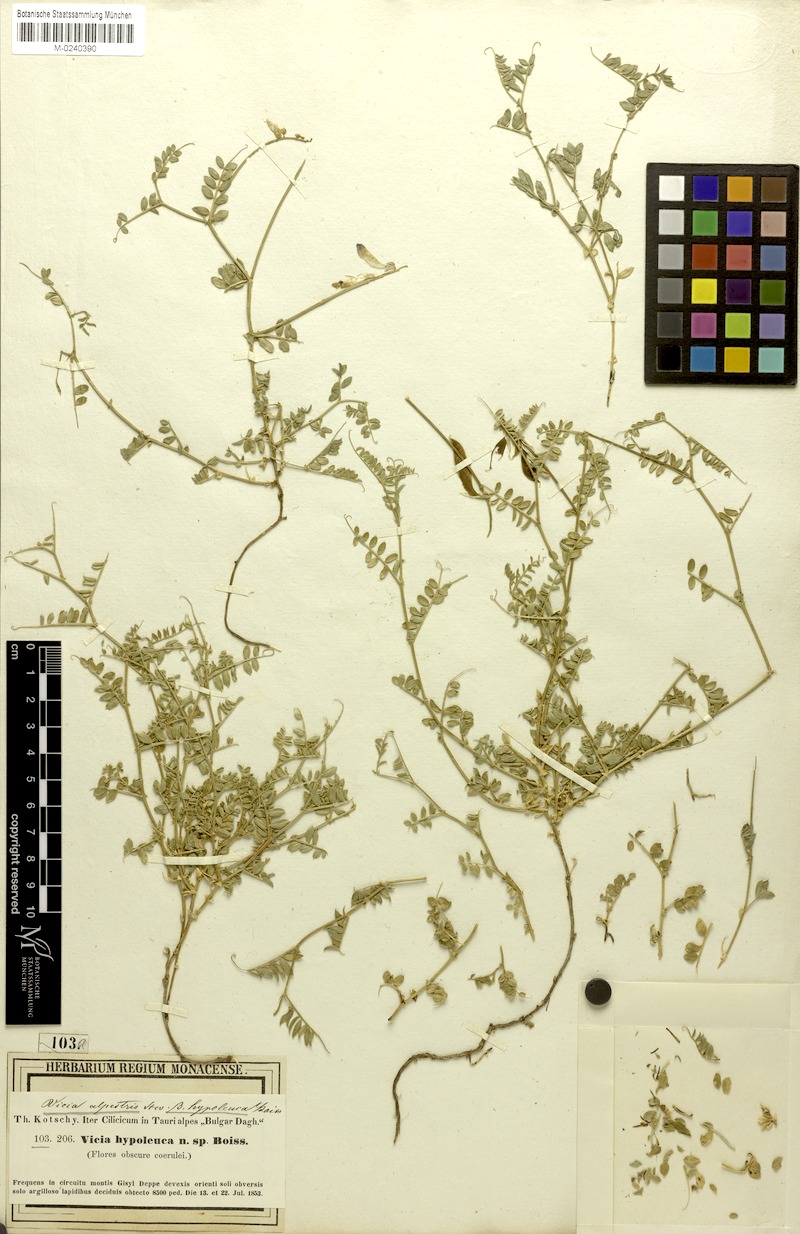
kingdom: Plantae
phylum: Tracheophyta
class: Magnoliopsida
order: Fabales
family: Fabaceae
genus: Vicia
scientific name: Vicia alpestris
